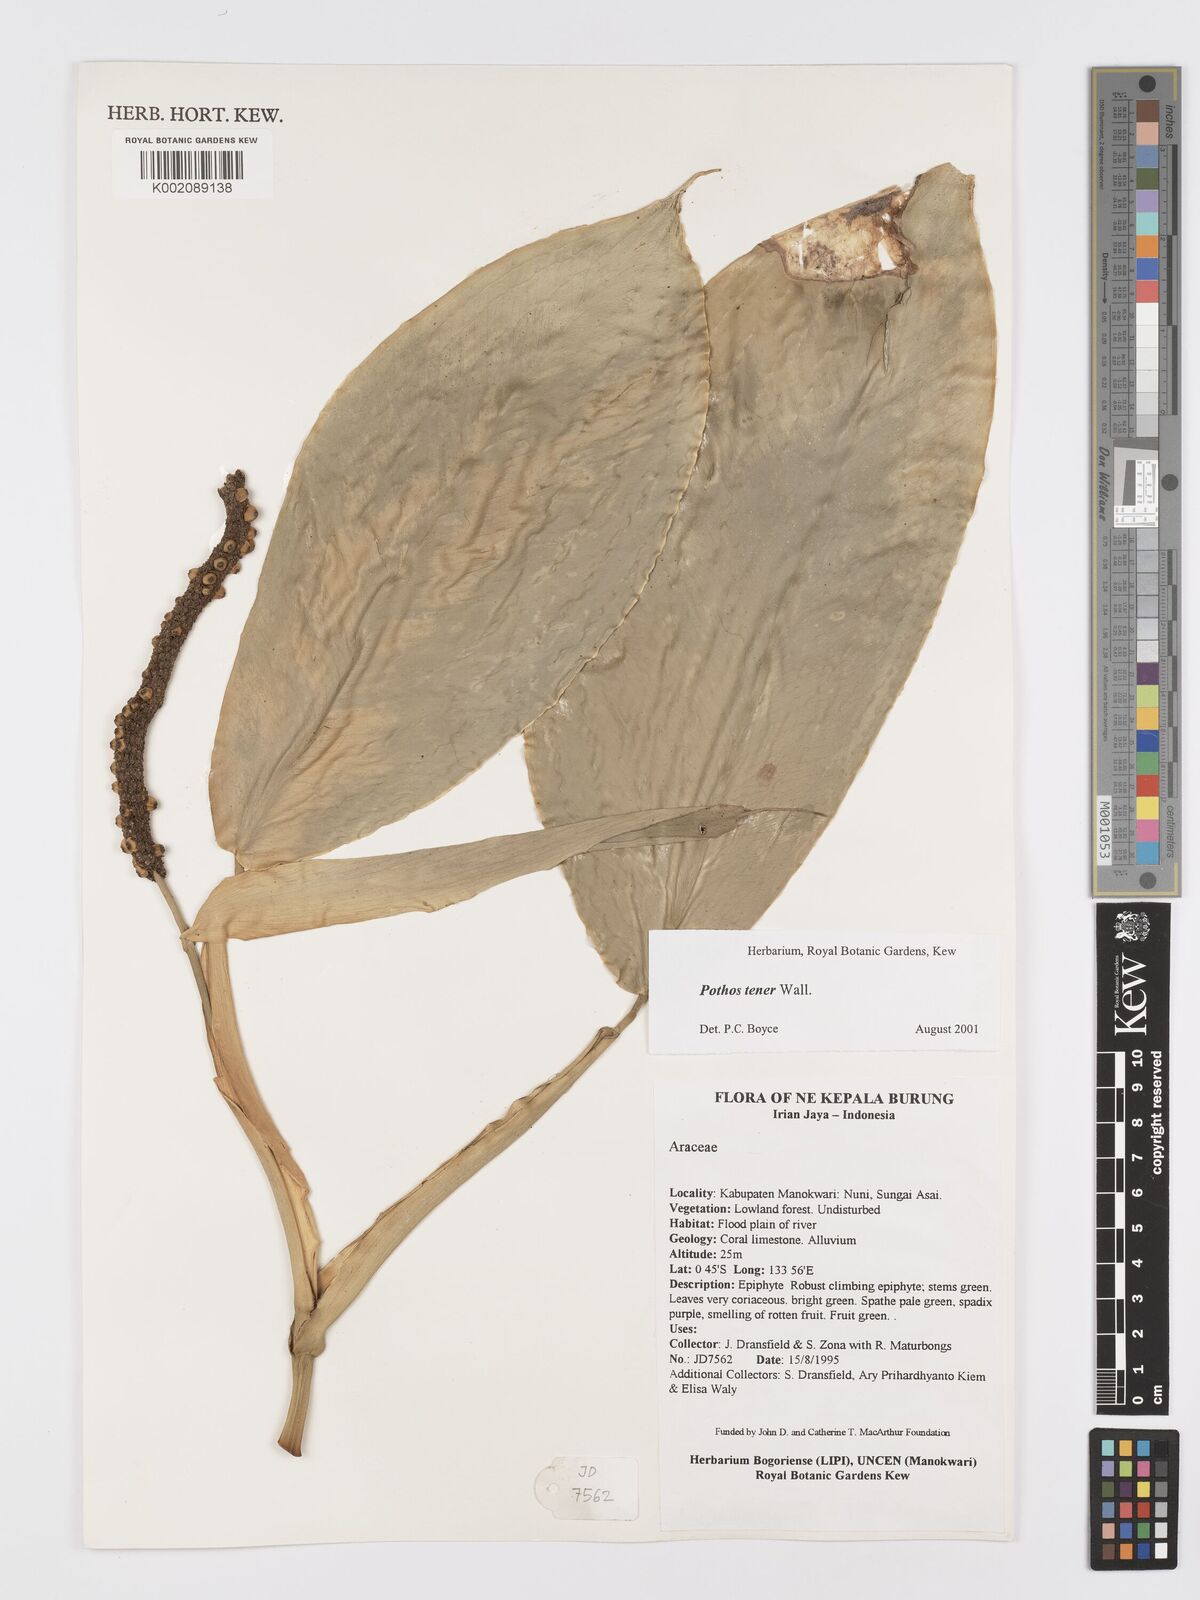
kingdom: Plantae
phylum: Tracheophyta
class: Liliopsida
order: Alismatales
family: Araceae
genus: Pothos
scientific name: Pothos tener
